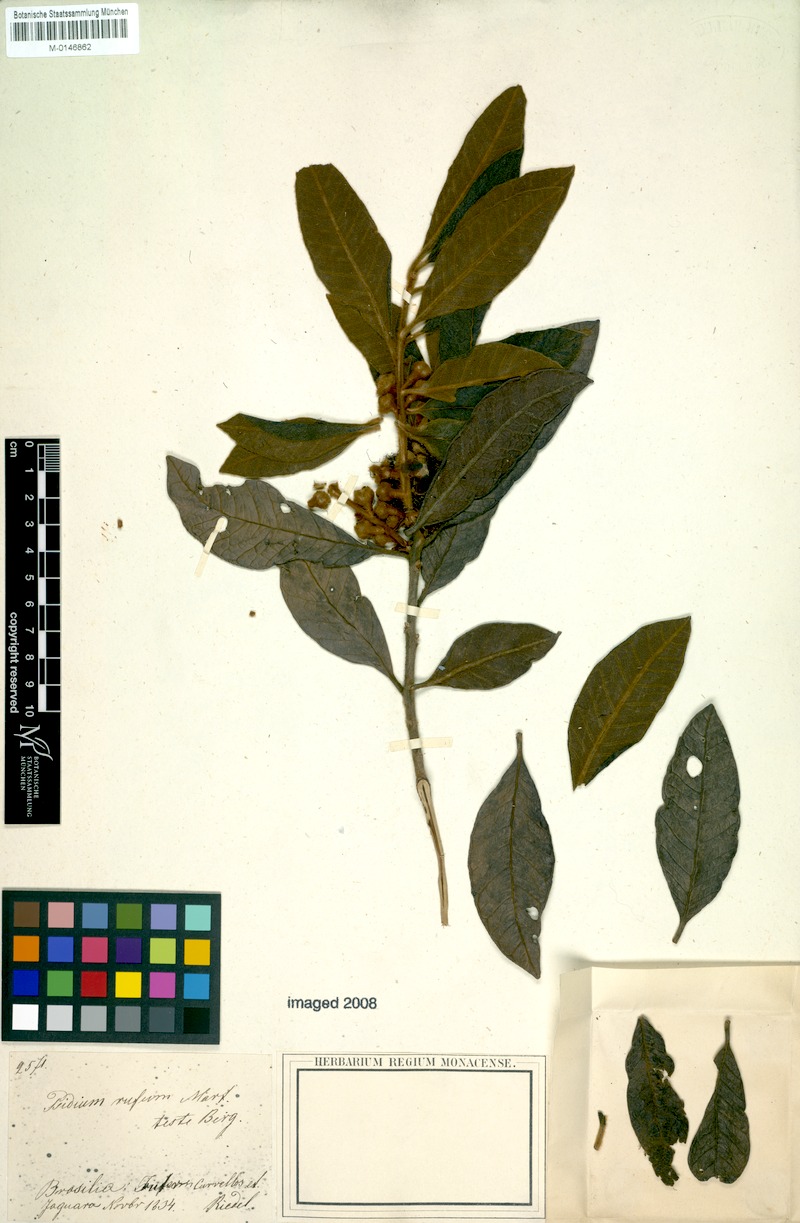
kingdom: Plantae
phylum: Tracheophyta
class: Magnoliopsida
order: Myrtales
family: Myrtaceae
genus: Psidium
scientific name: Psidium rufum
